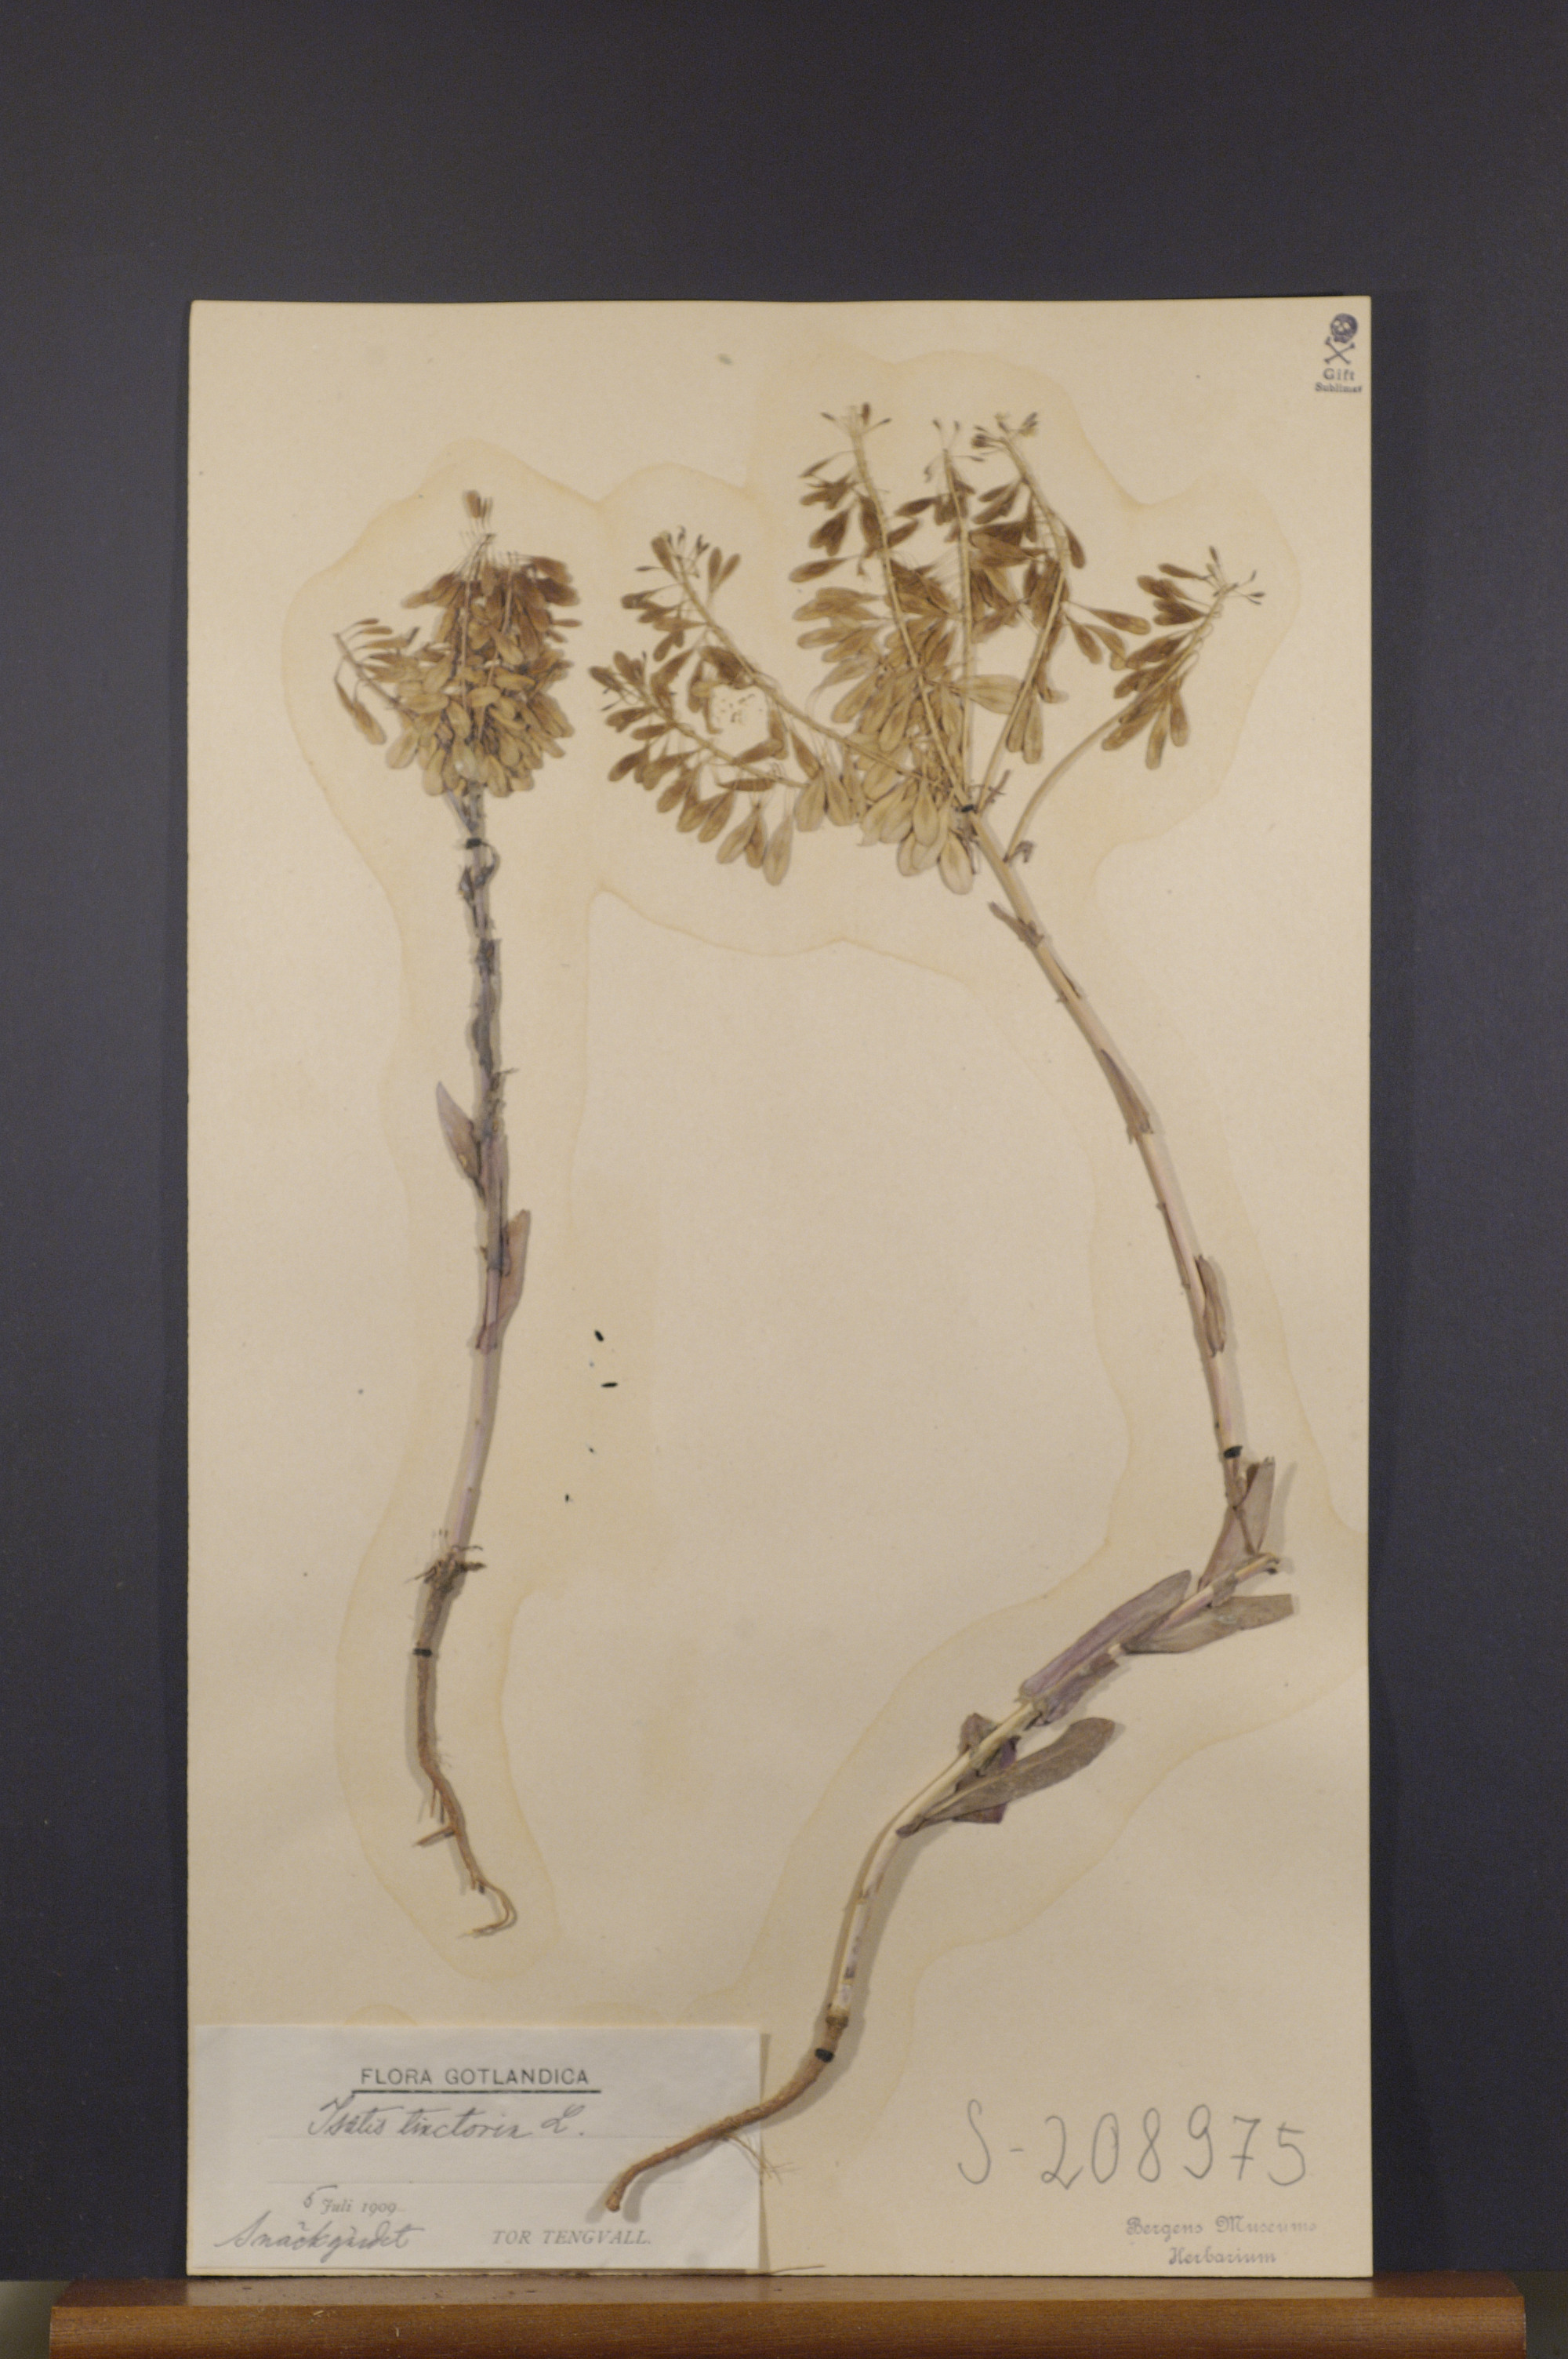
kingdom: Plantae
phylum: Tracheophyta
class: Magnoliopsida
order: Brassicales
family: Brassicaceae
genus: Isatis
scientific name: Isatis tinctoria
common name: Woad
